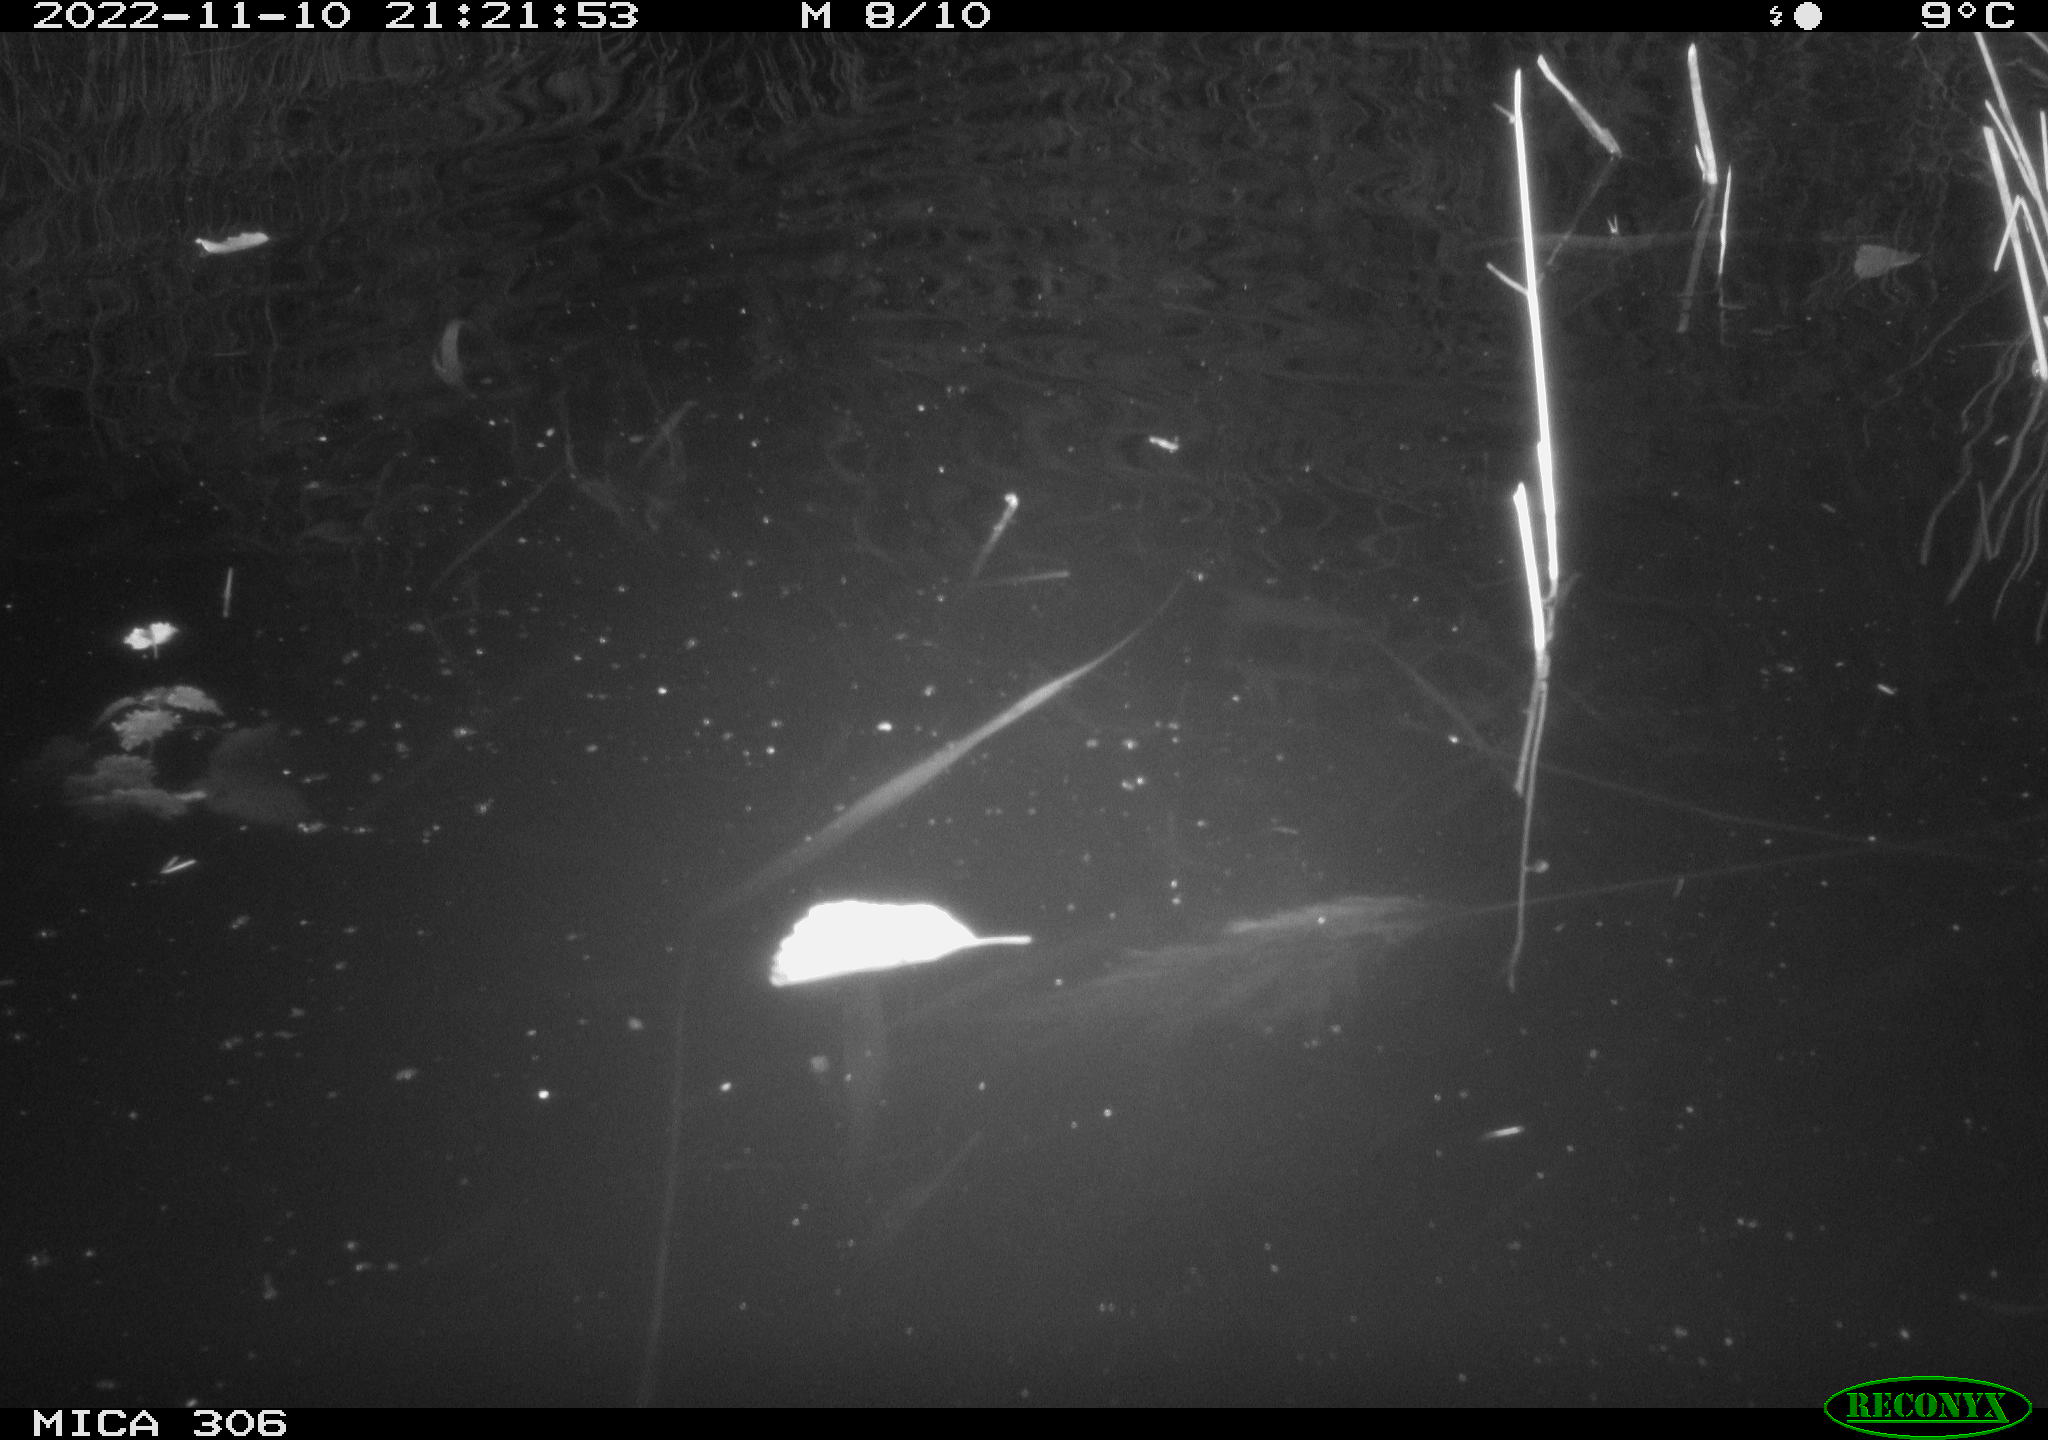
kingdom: Animalia
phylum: Chordata
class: Mammalia
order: Rodentia
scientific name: Rodentia
